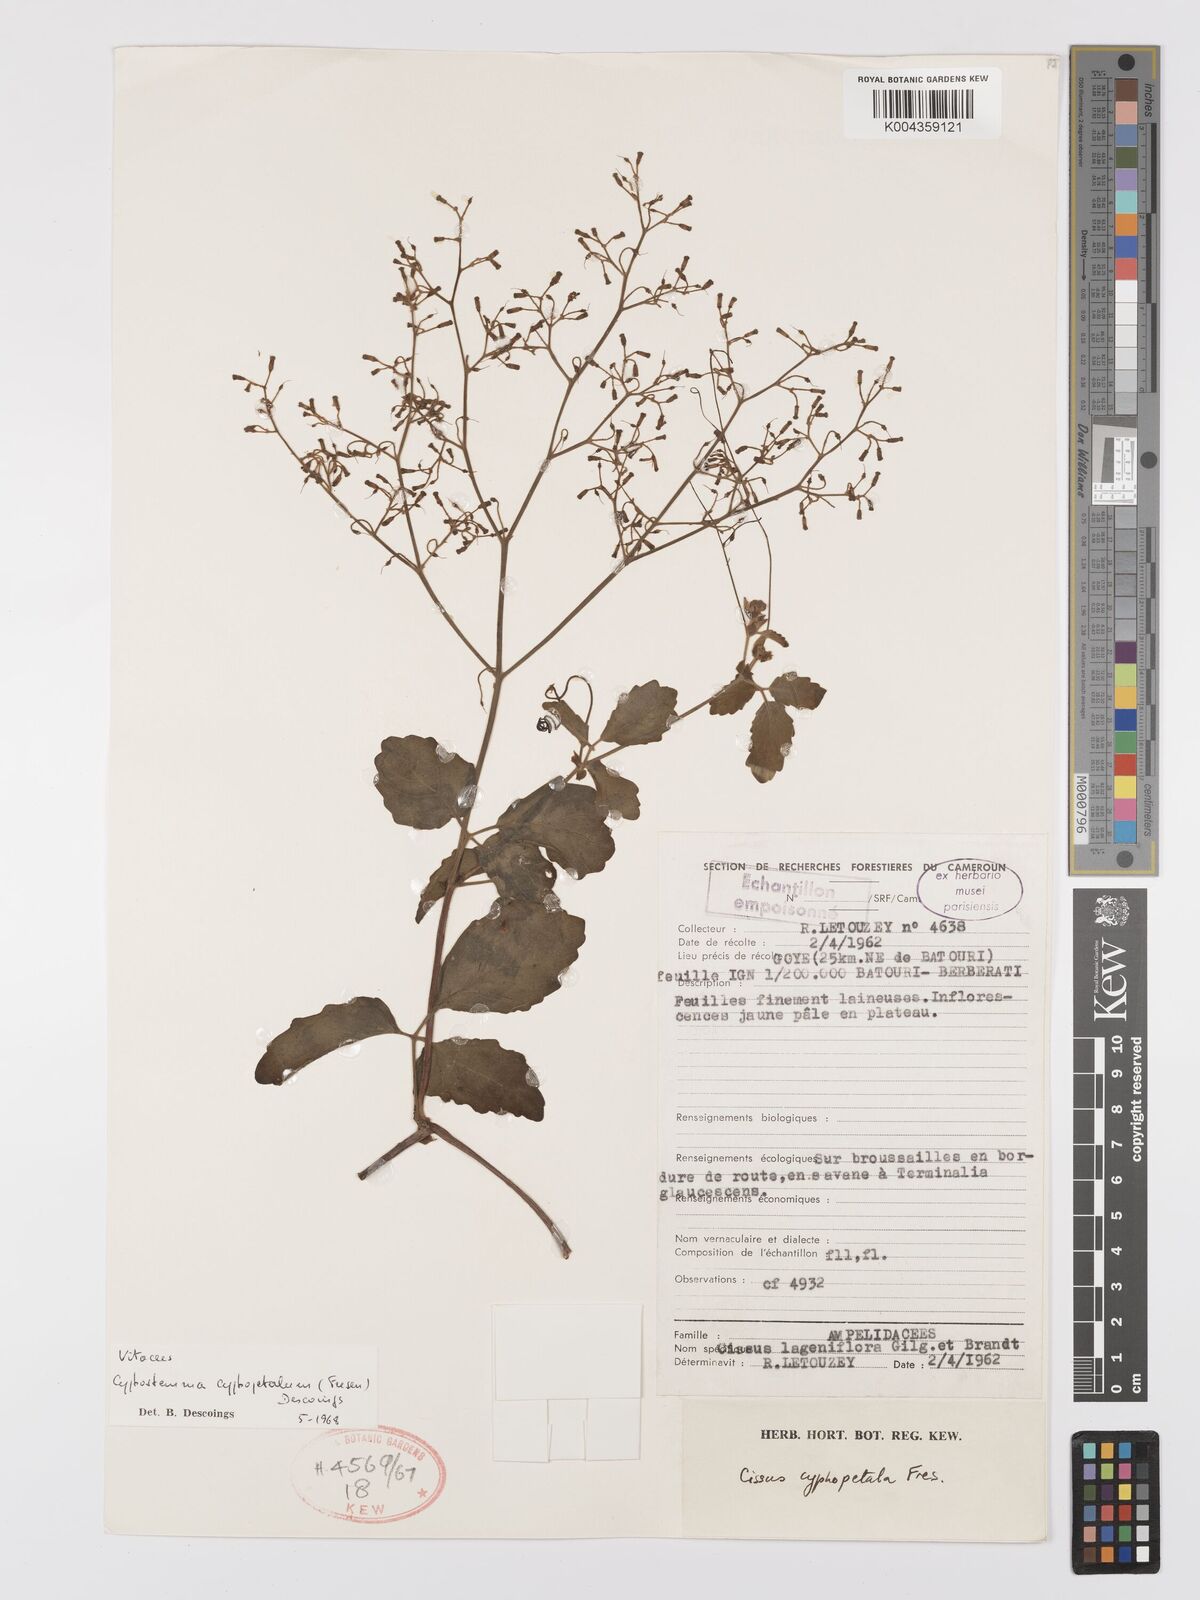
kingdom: Plantae
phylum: Tracheophyta
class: Magnoliopsida
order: Vitales
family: Vitaceae
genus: Cyphostemma
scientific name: Cyphostemma cyphopetalum
